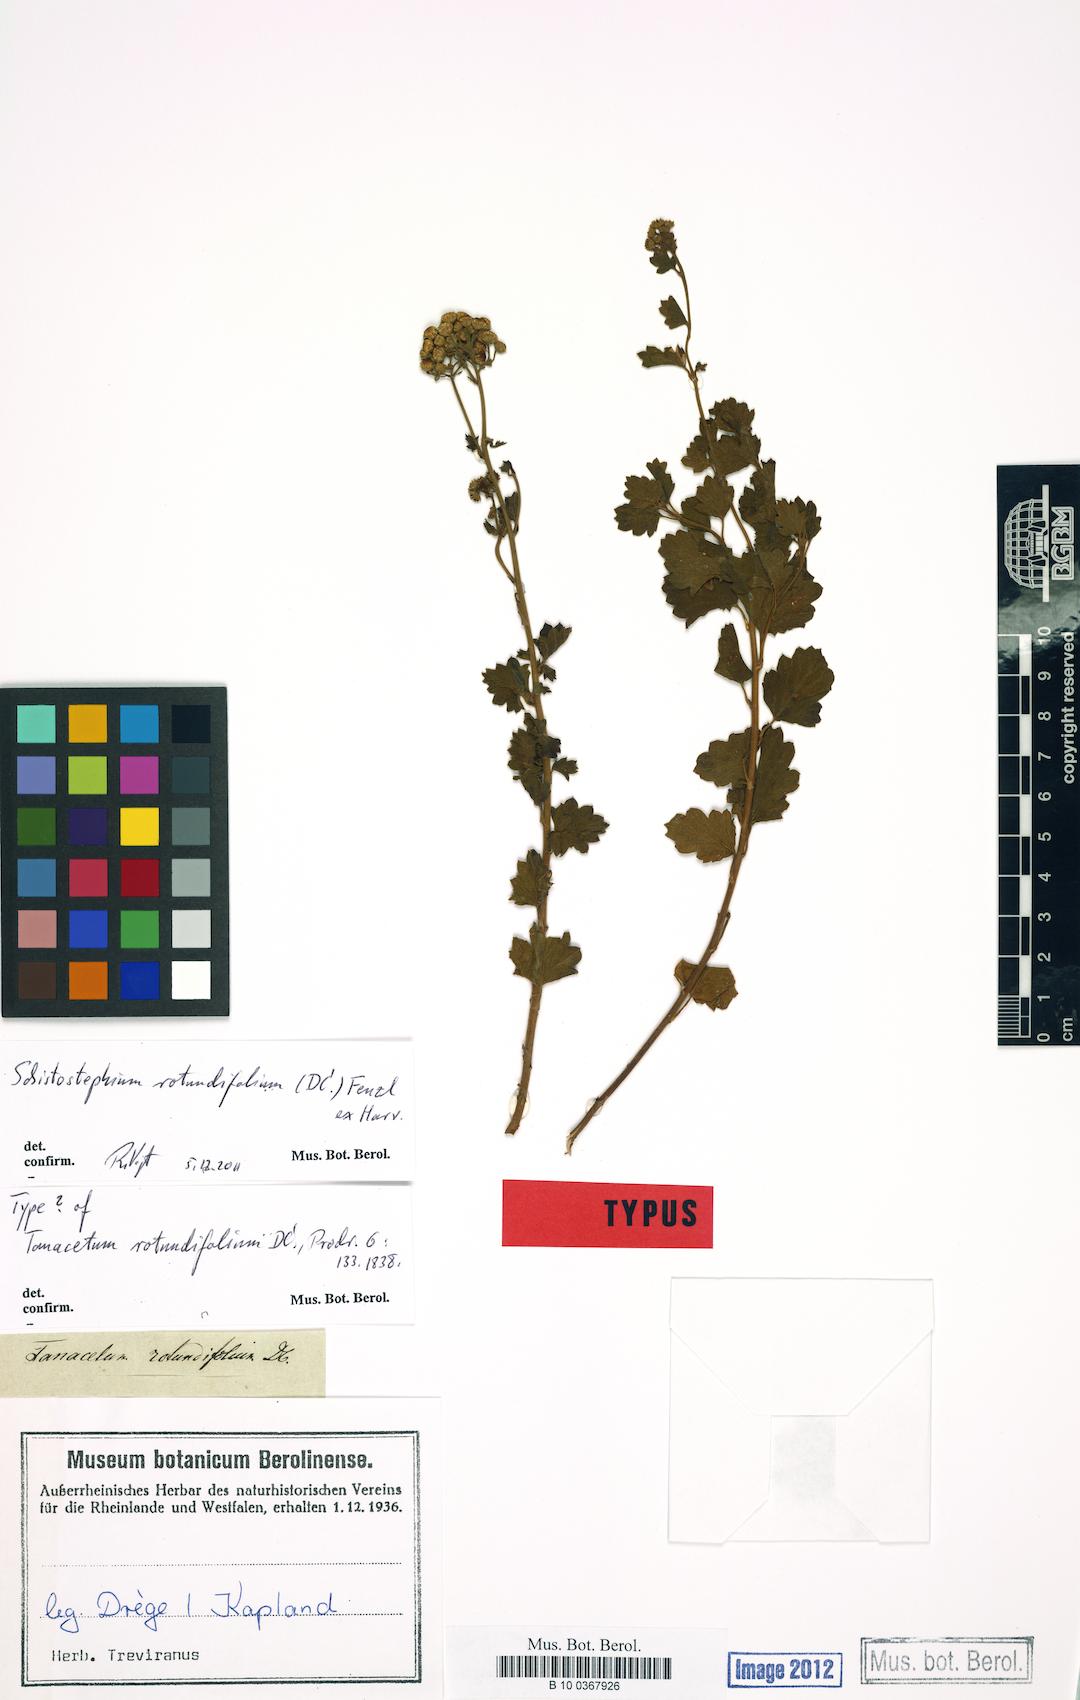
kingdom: Plantae
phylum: Tracheophyta
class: Magnoliopsida
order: Asterales
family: Asteraceae
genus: Schistostephium
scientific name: Schistostephium rotundifolium
